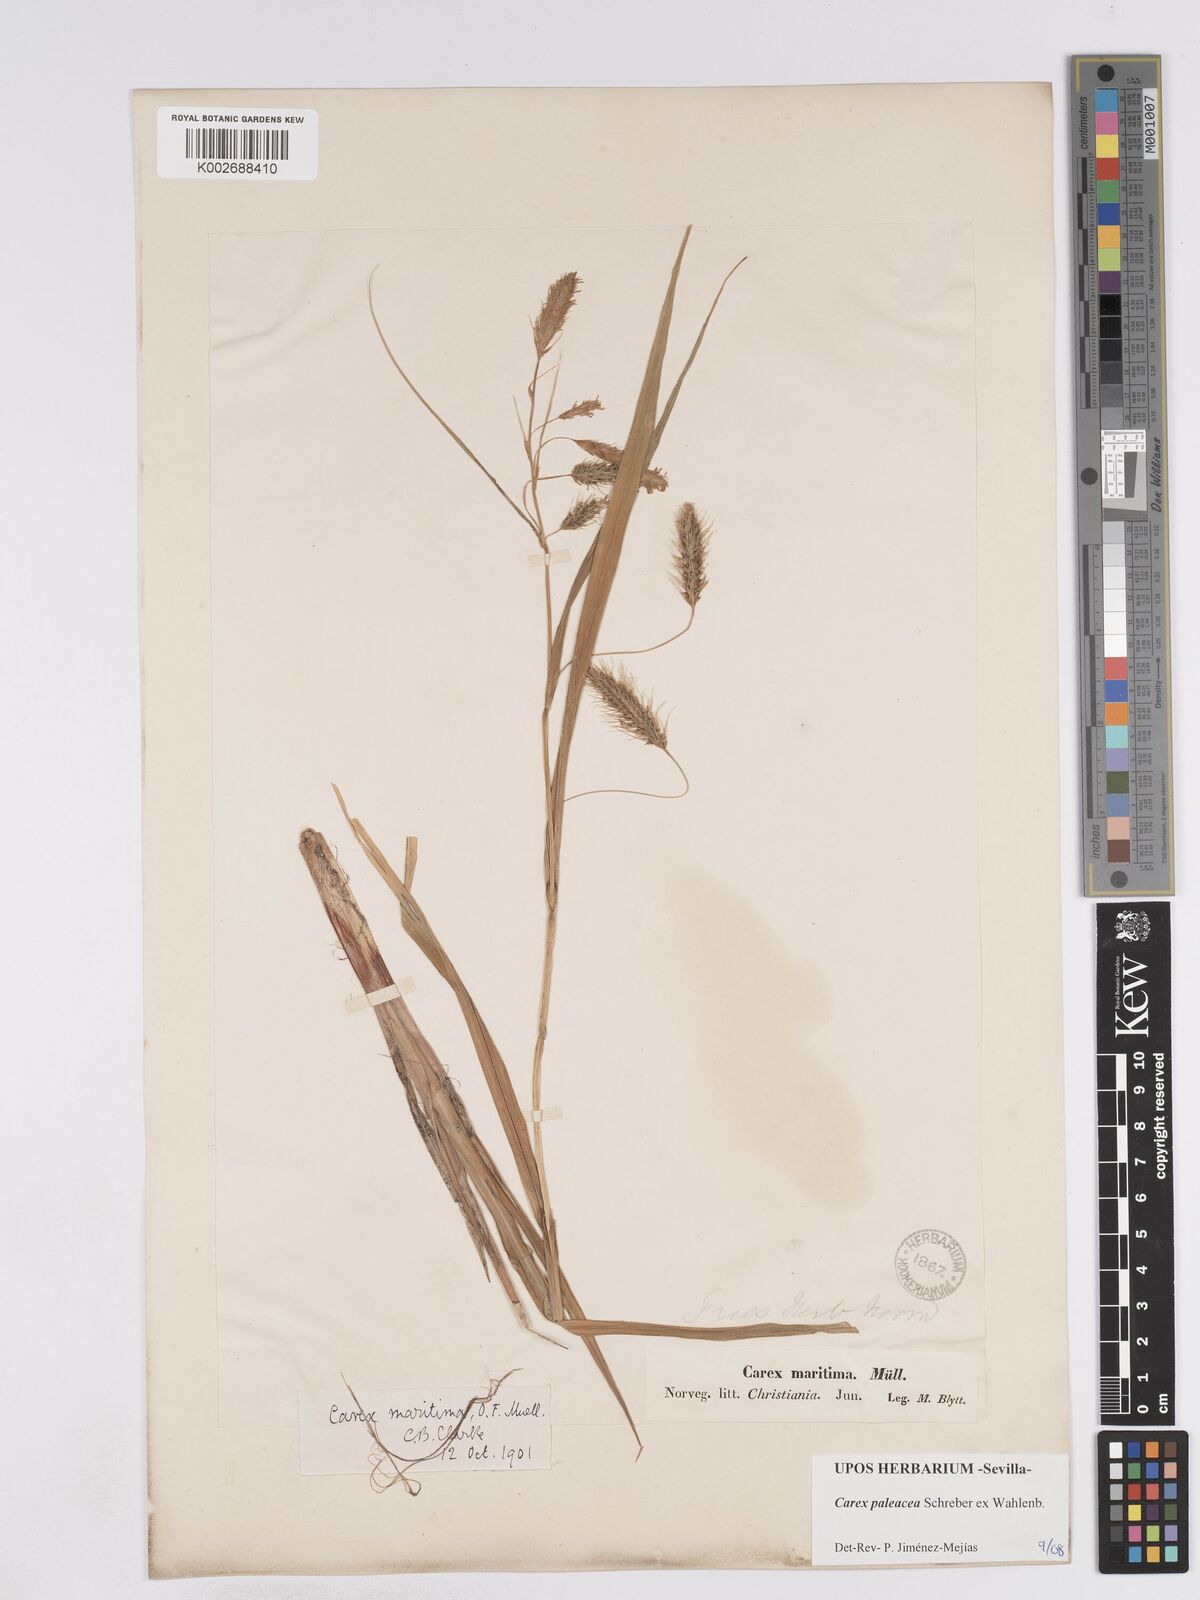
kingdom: Plantae
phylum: Tracheophyta
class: Liliopsida
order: Poales
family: Cyperaceae
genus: Carex
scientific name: Carex paleacea
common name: Chaffy sedge
